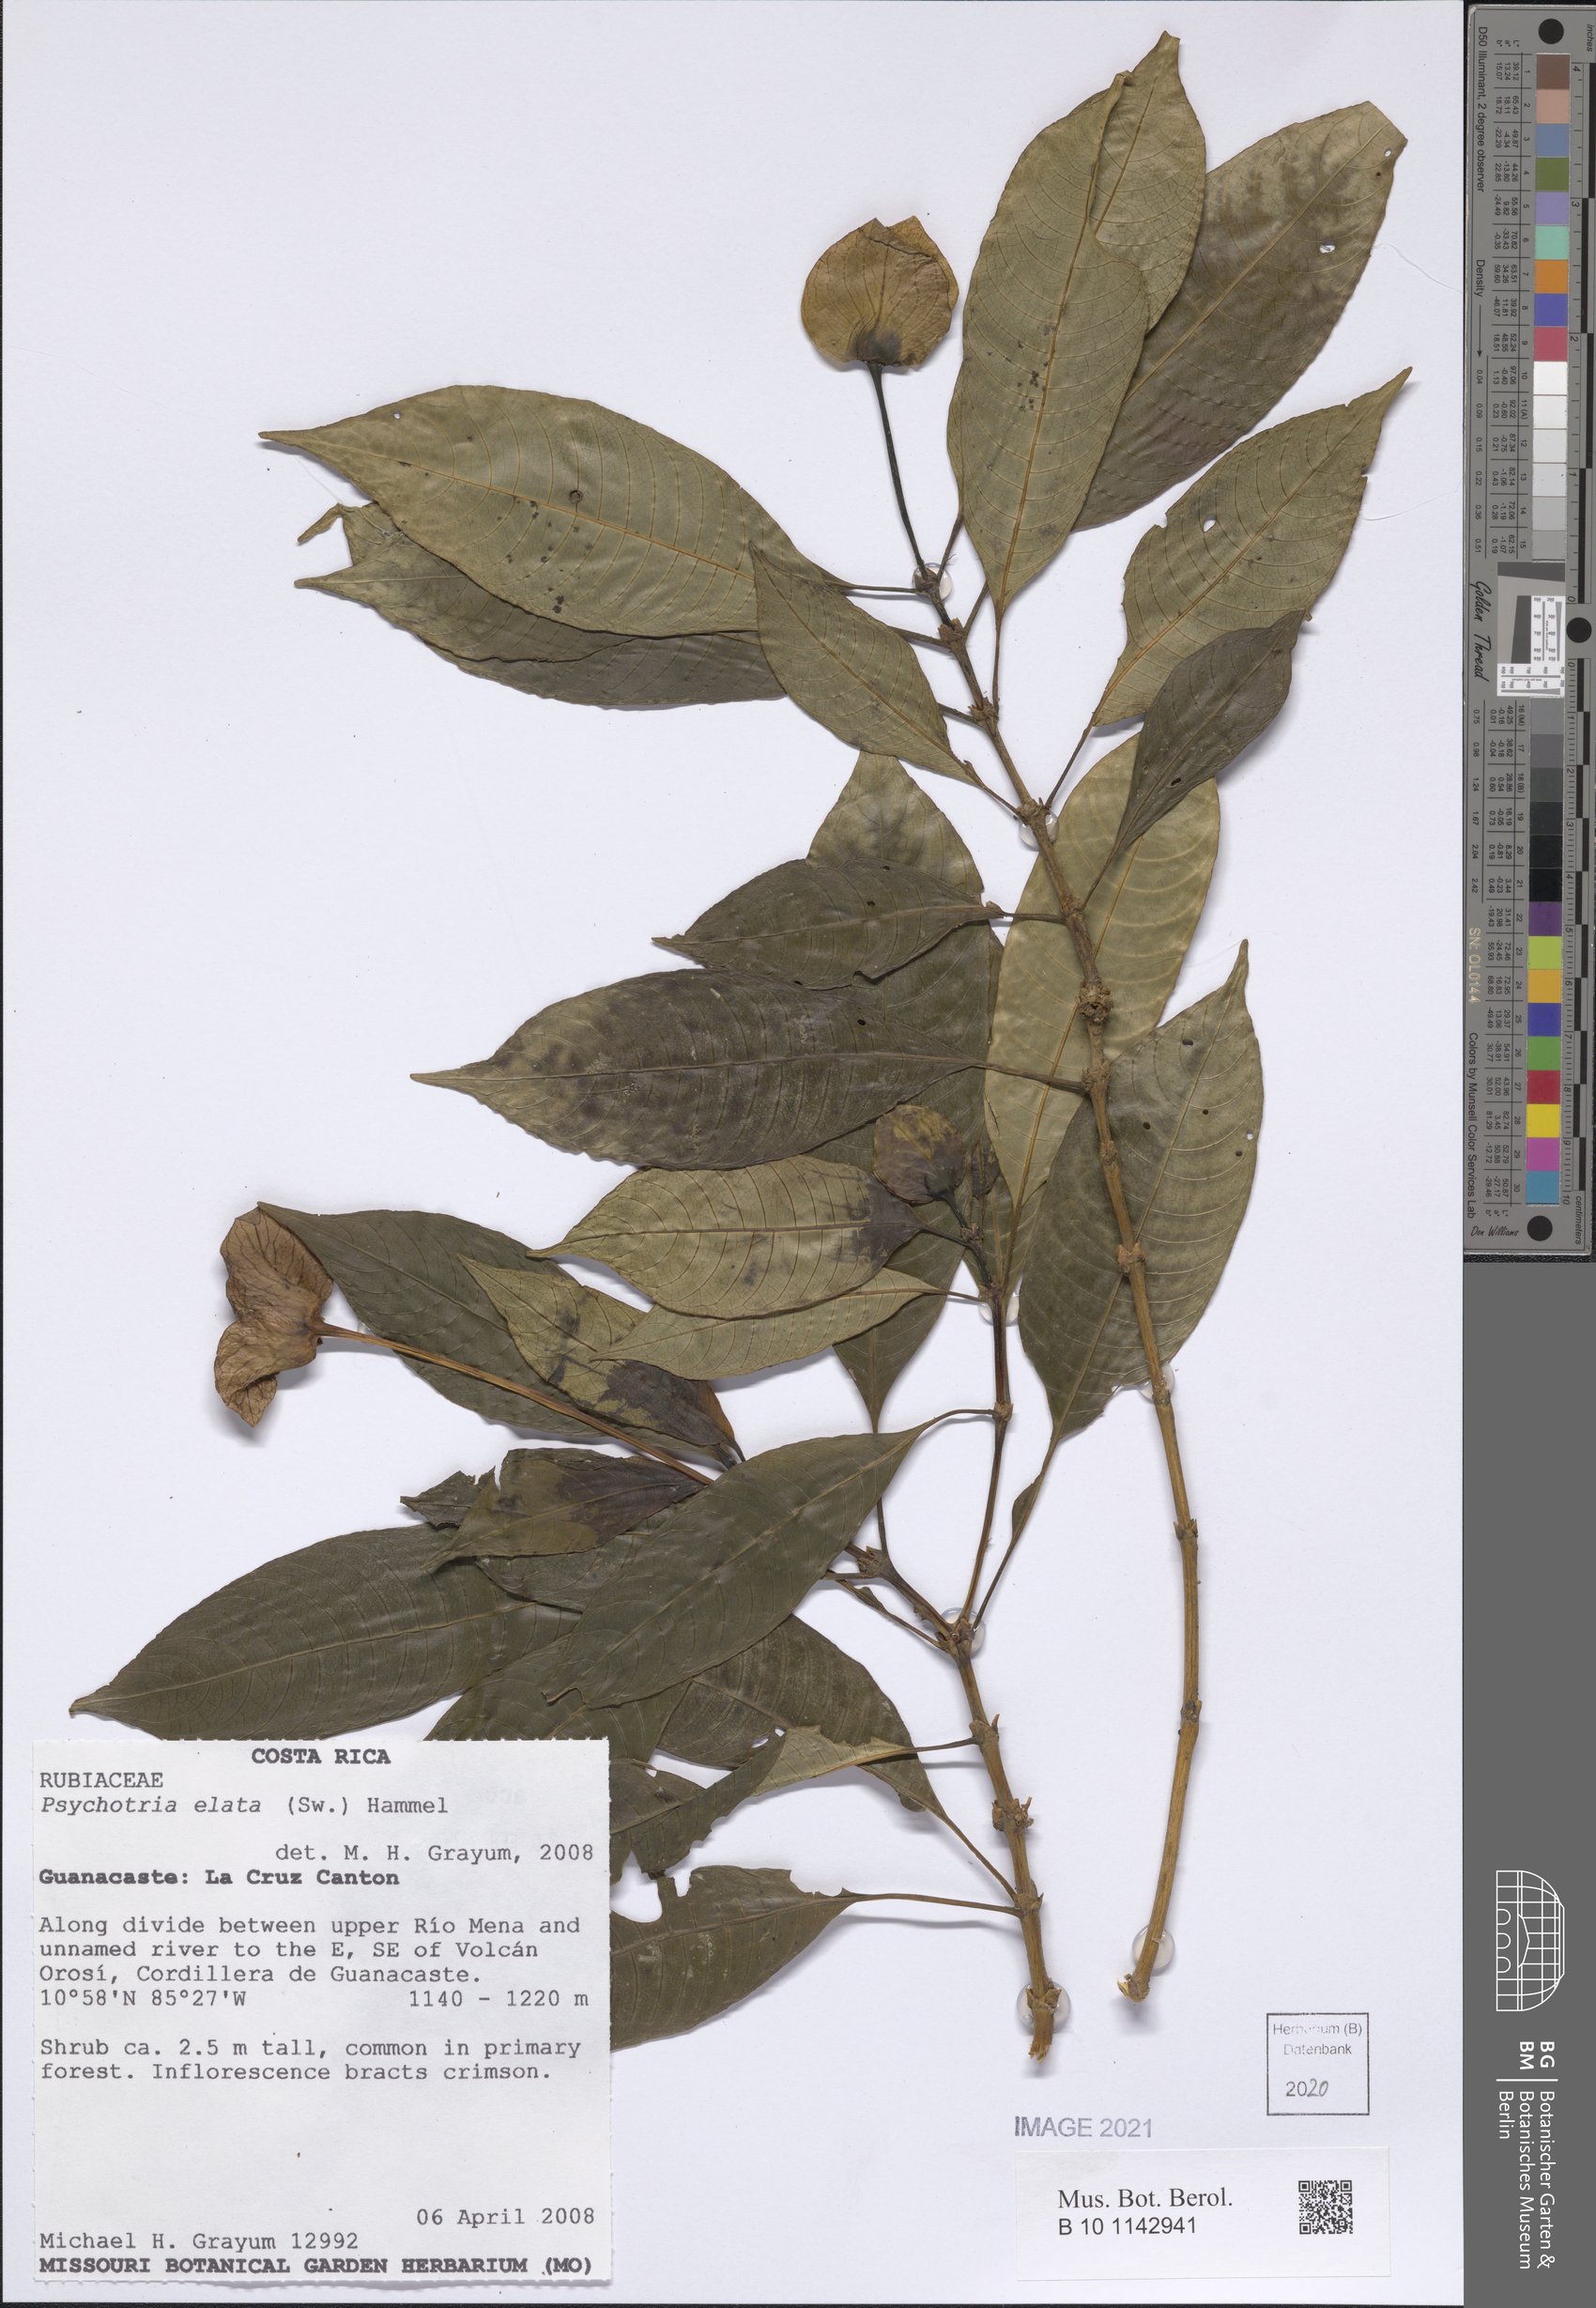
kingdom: Plantae
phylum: Tracheophyta
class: Magnoliopsida
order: Gentianales
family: Rubiaceae
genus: Palicourea
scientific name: Palicourea elata
